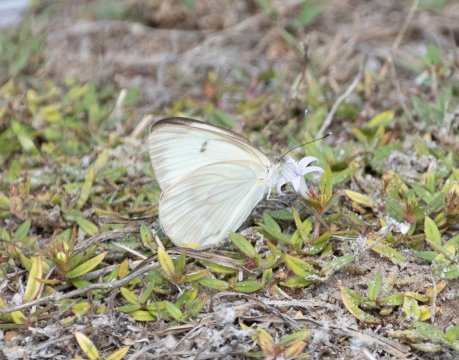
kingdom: Animalia
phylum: Arthropoda
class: Insecta
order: Lepidoptera
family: Pieridae
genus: Ascia
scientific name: Ascia monuste
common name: Great Southern White
